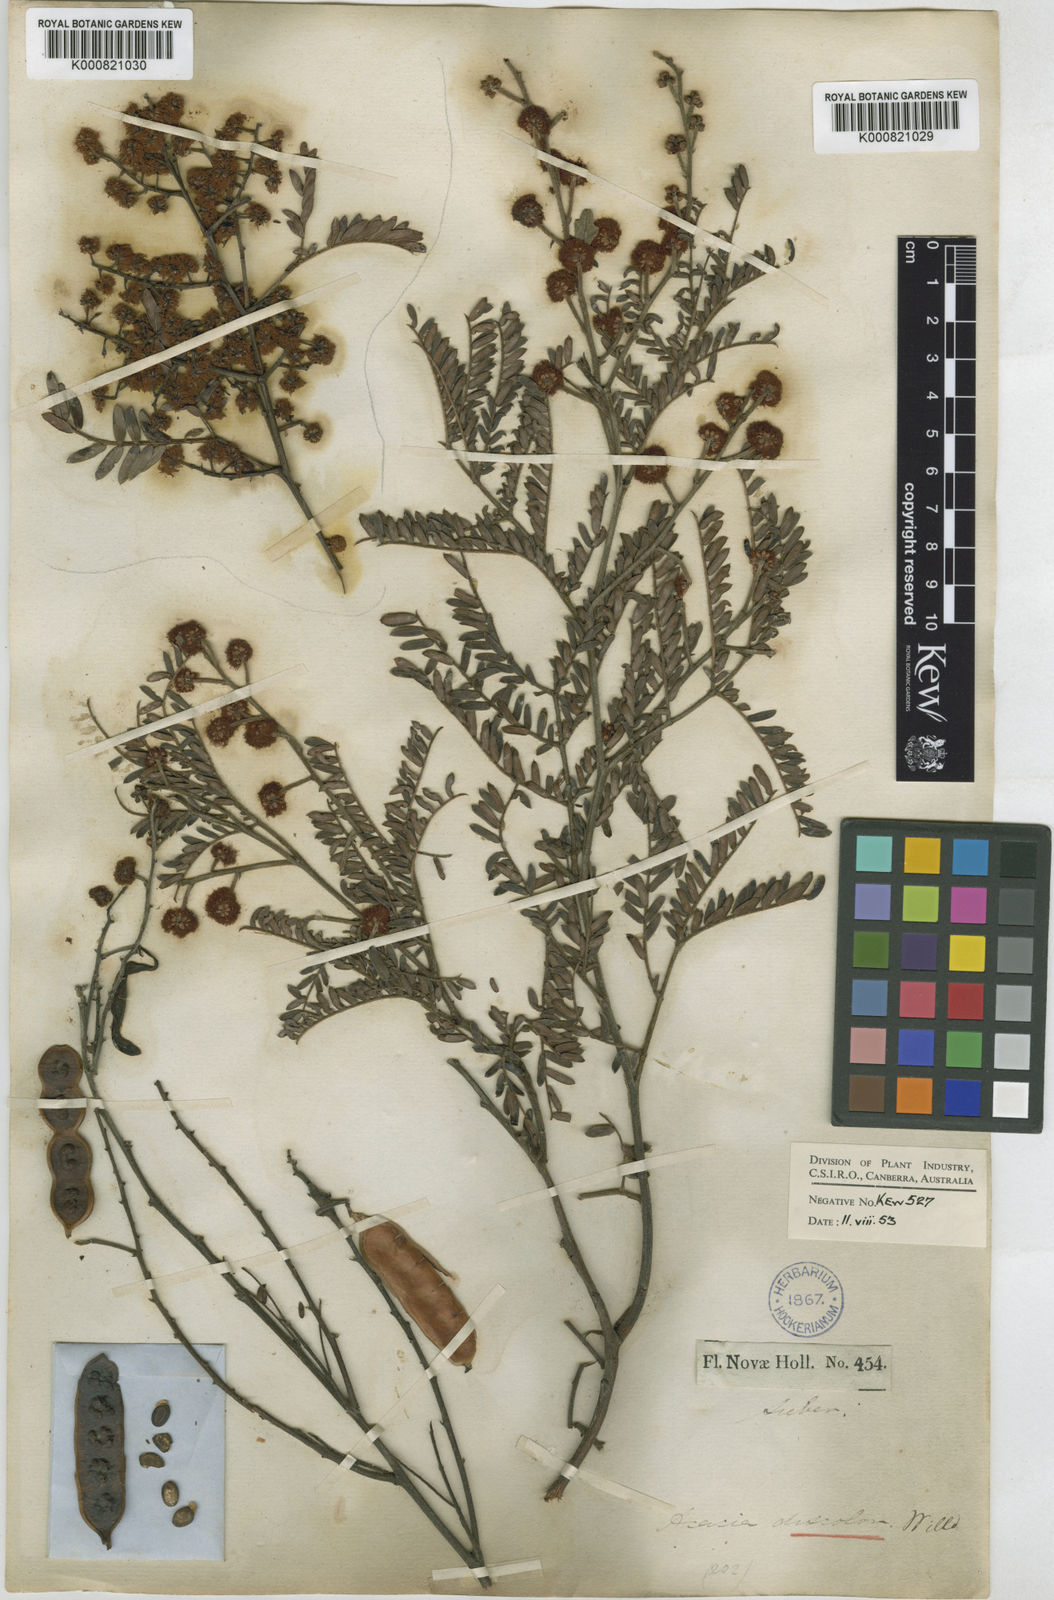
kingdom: Plantae
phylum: Tracheophyta
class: Magnoliopsida
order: Fabales
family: Fabaceae
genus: Acacia
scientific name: Acacia terminalis
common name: Cedar wattle
